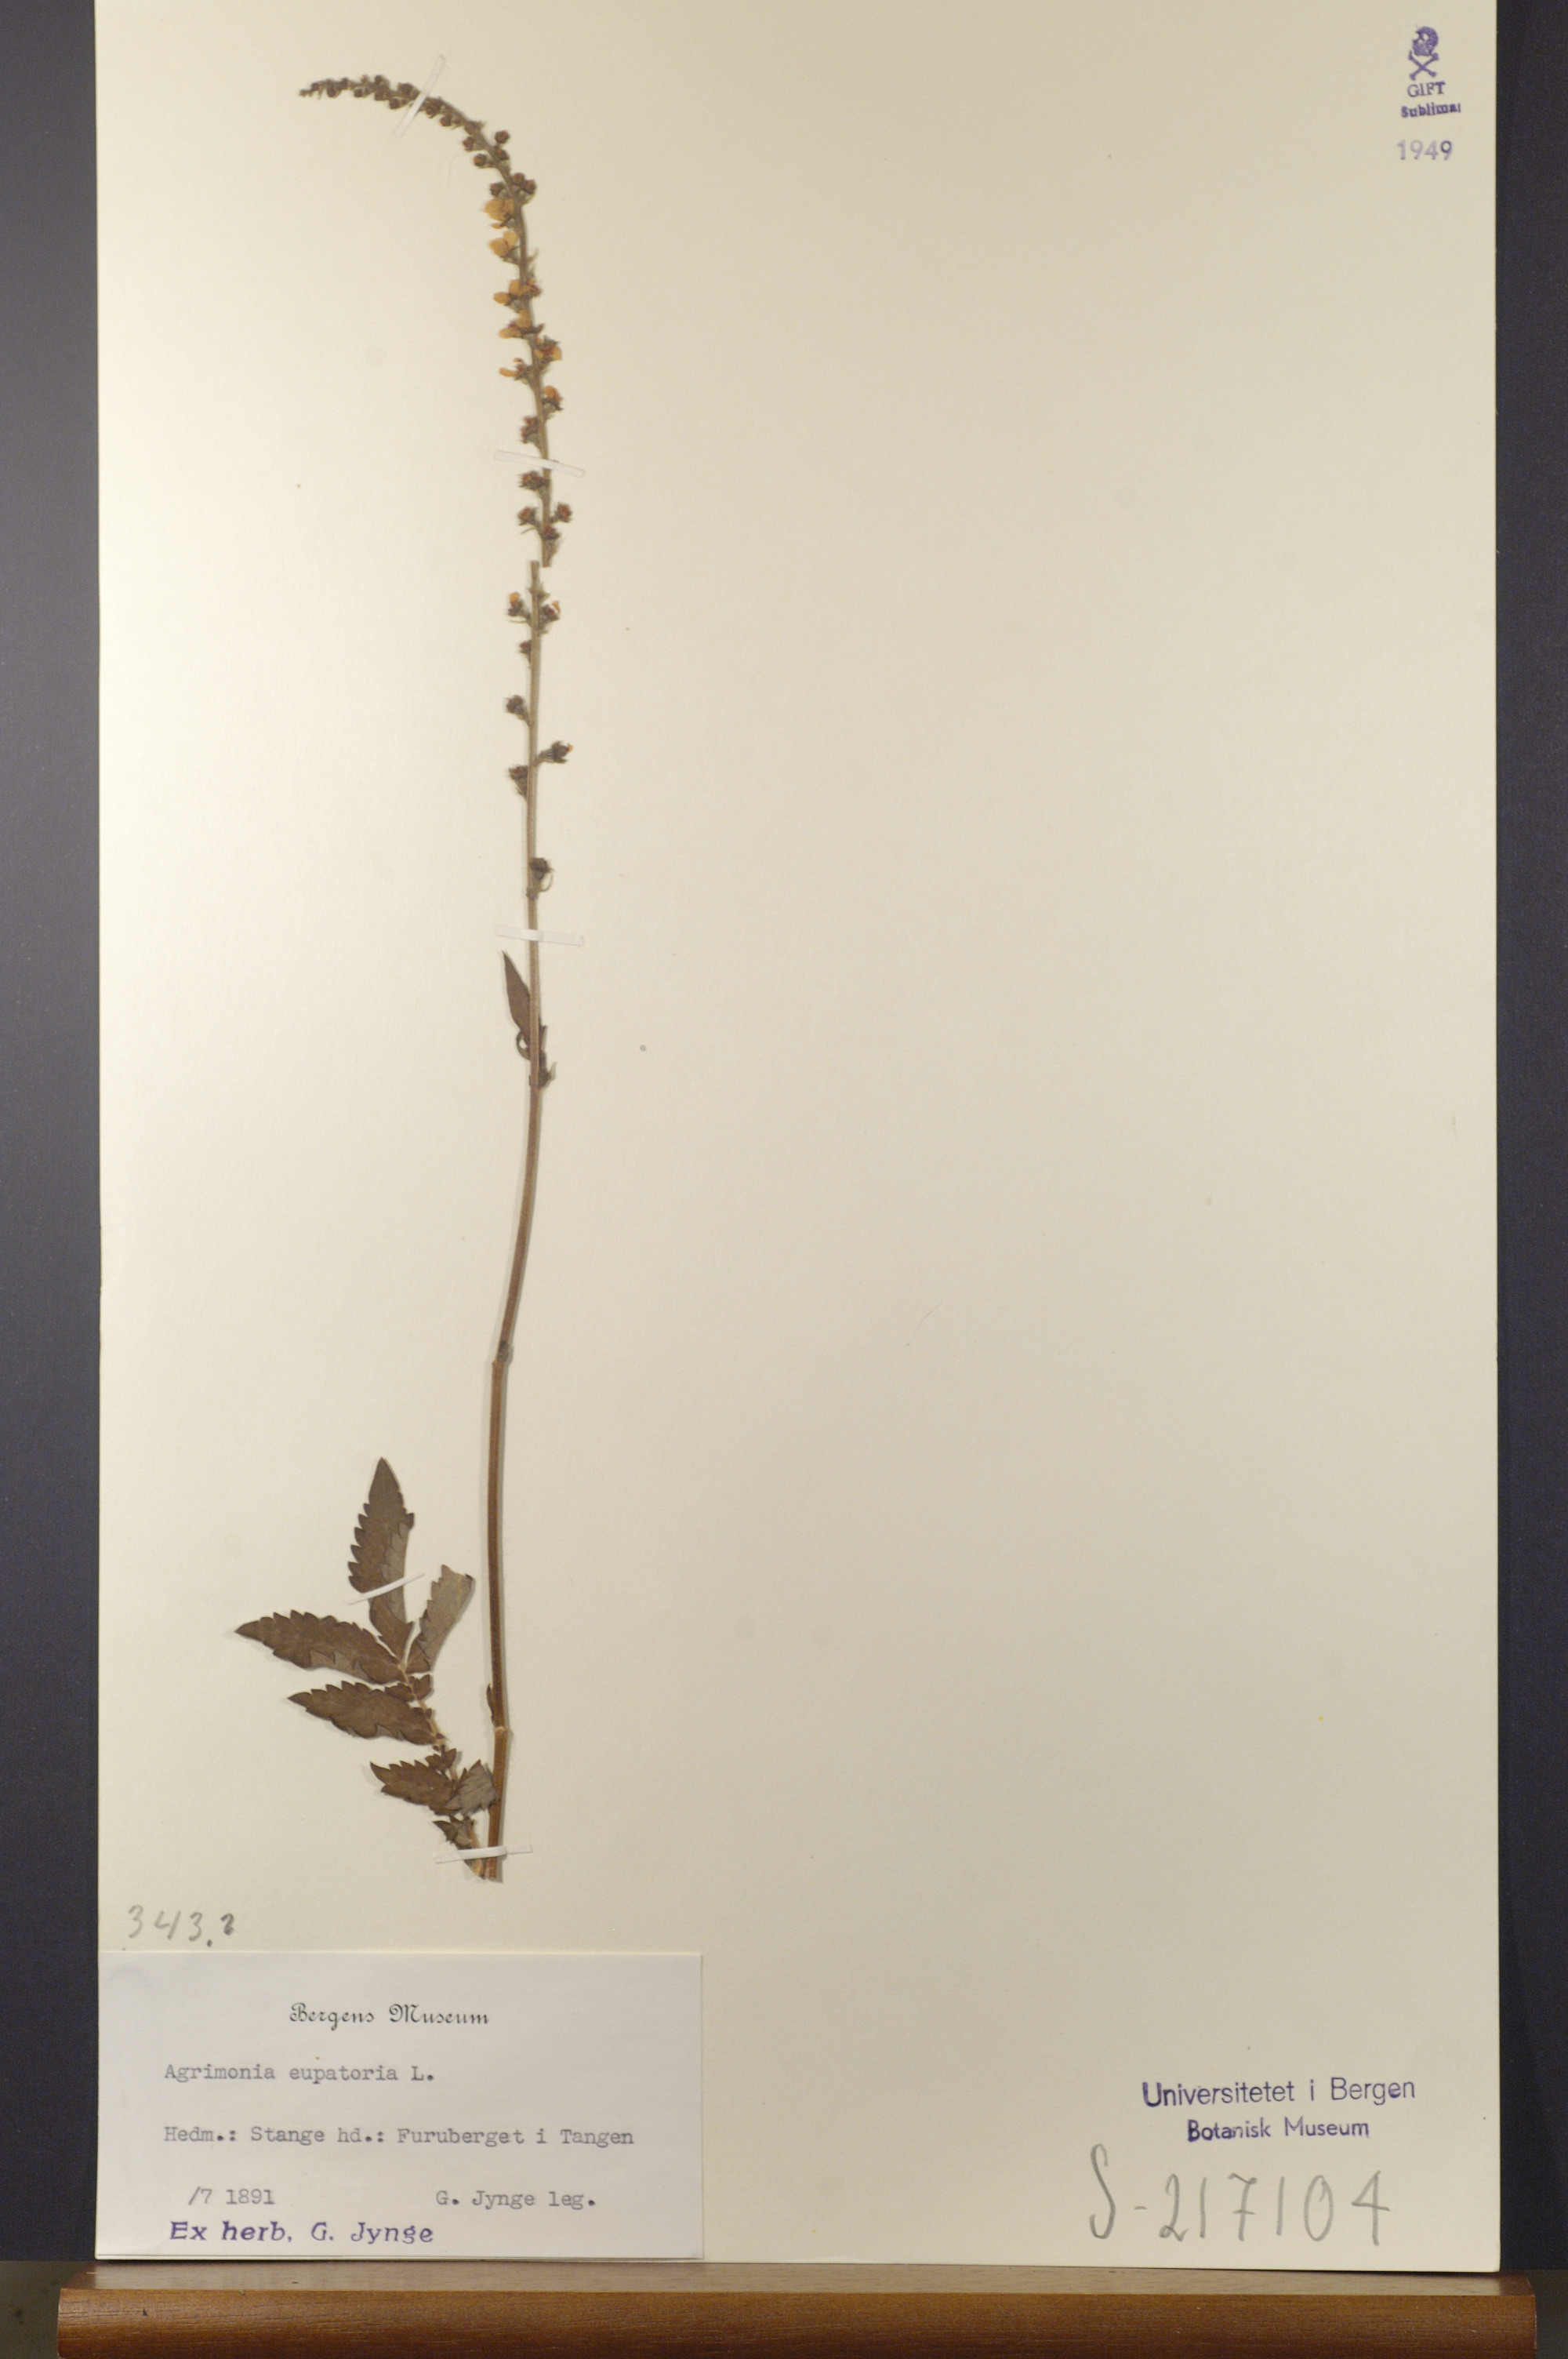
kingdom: Plantae
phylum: Tracheophyta
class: Magnoliopsida
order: Rosales
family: Rosaceae
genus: Agrimonia
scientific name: Agrimonia eupatoria
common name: Agrimony
